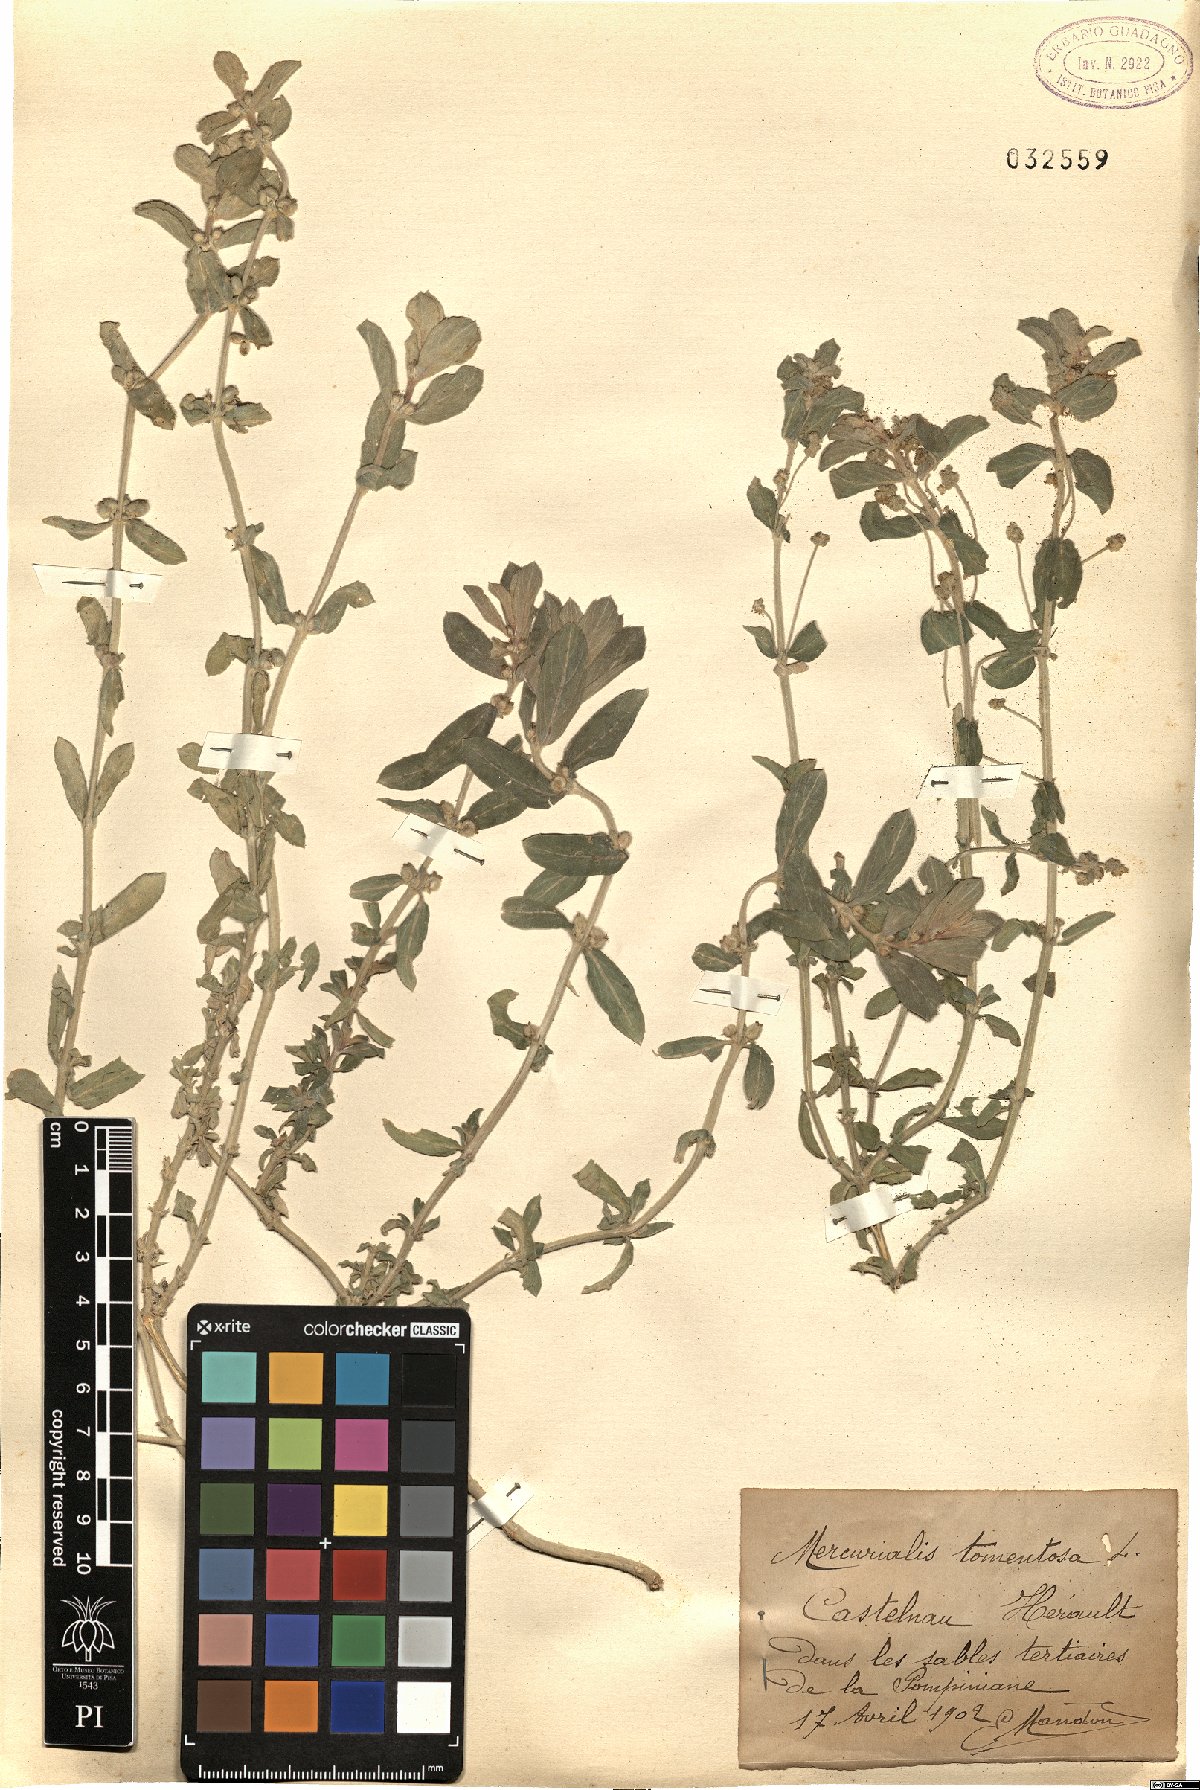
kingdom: Plantae
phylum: Tracheophyta
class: Magnoliopsida
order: Malpighiales
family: Euphorbiaceae
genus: Mercurialis
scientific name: Mercurialis tomentosa
